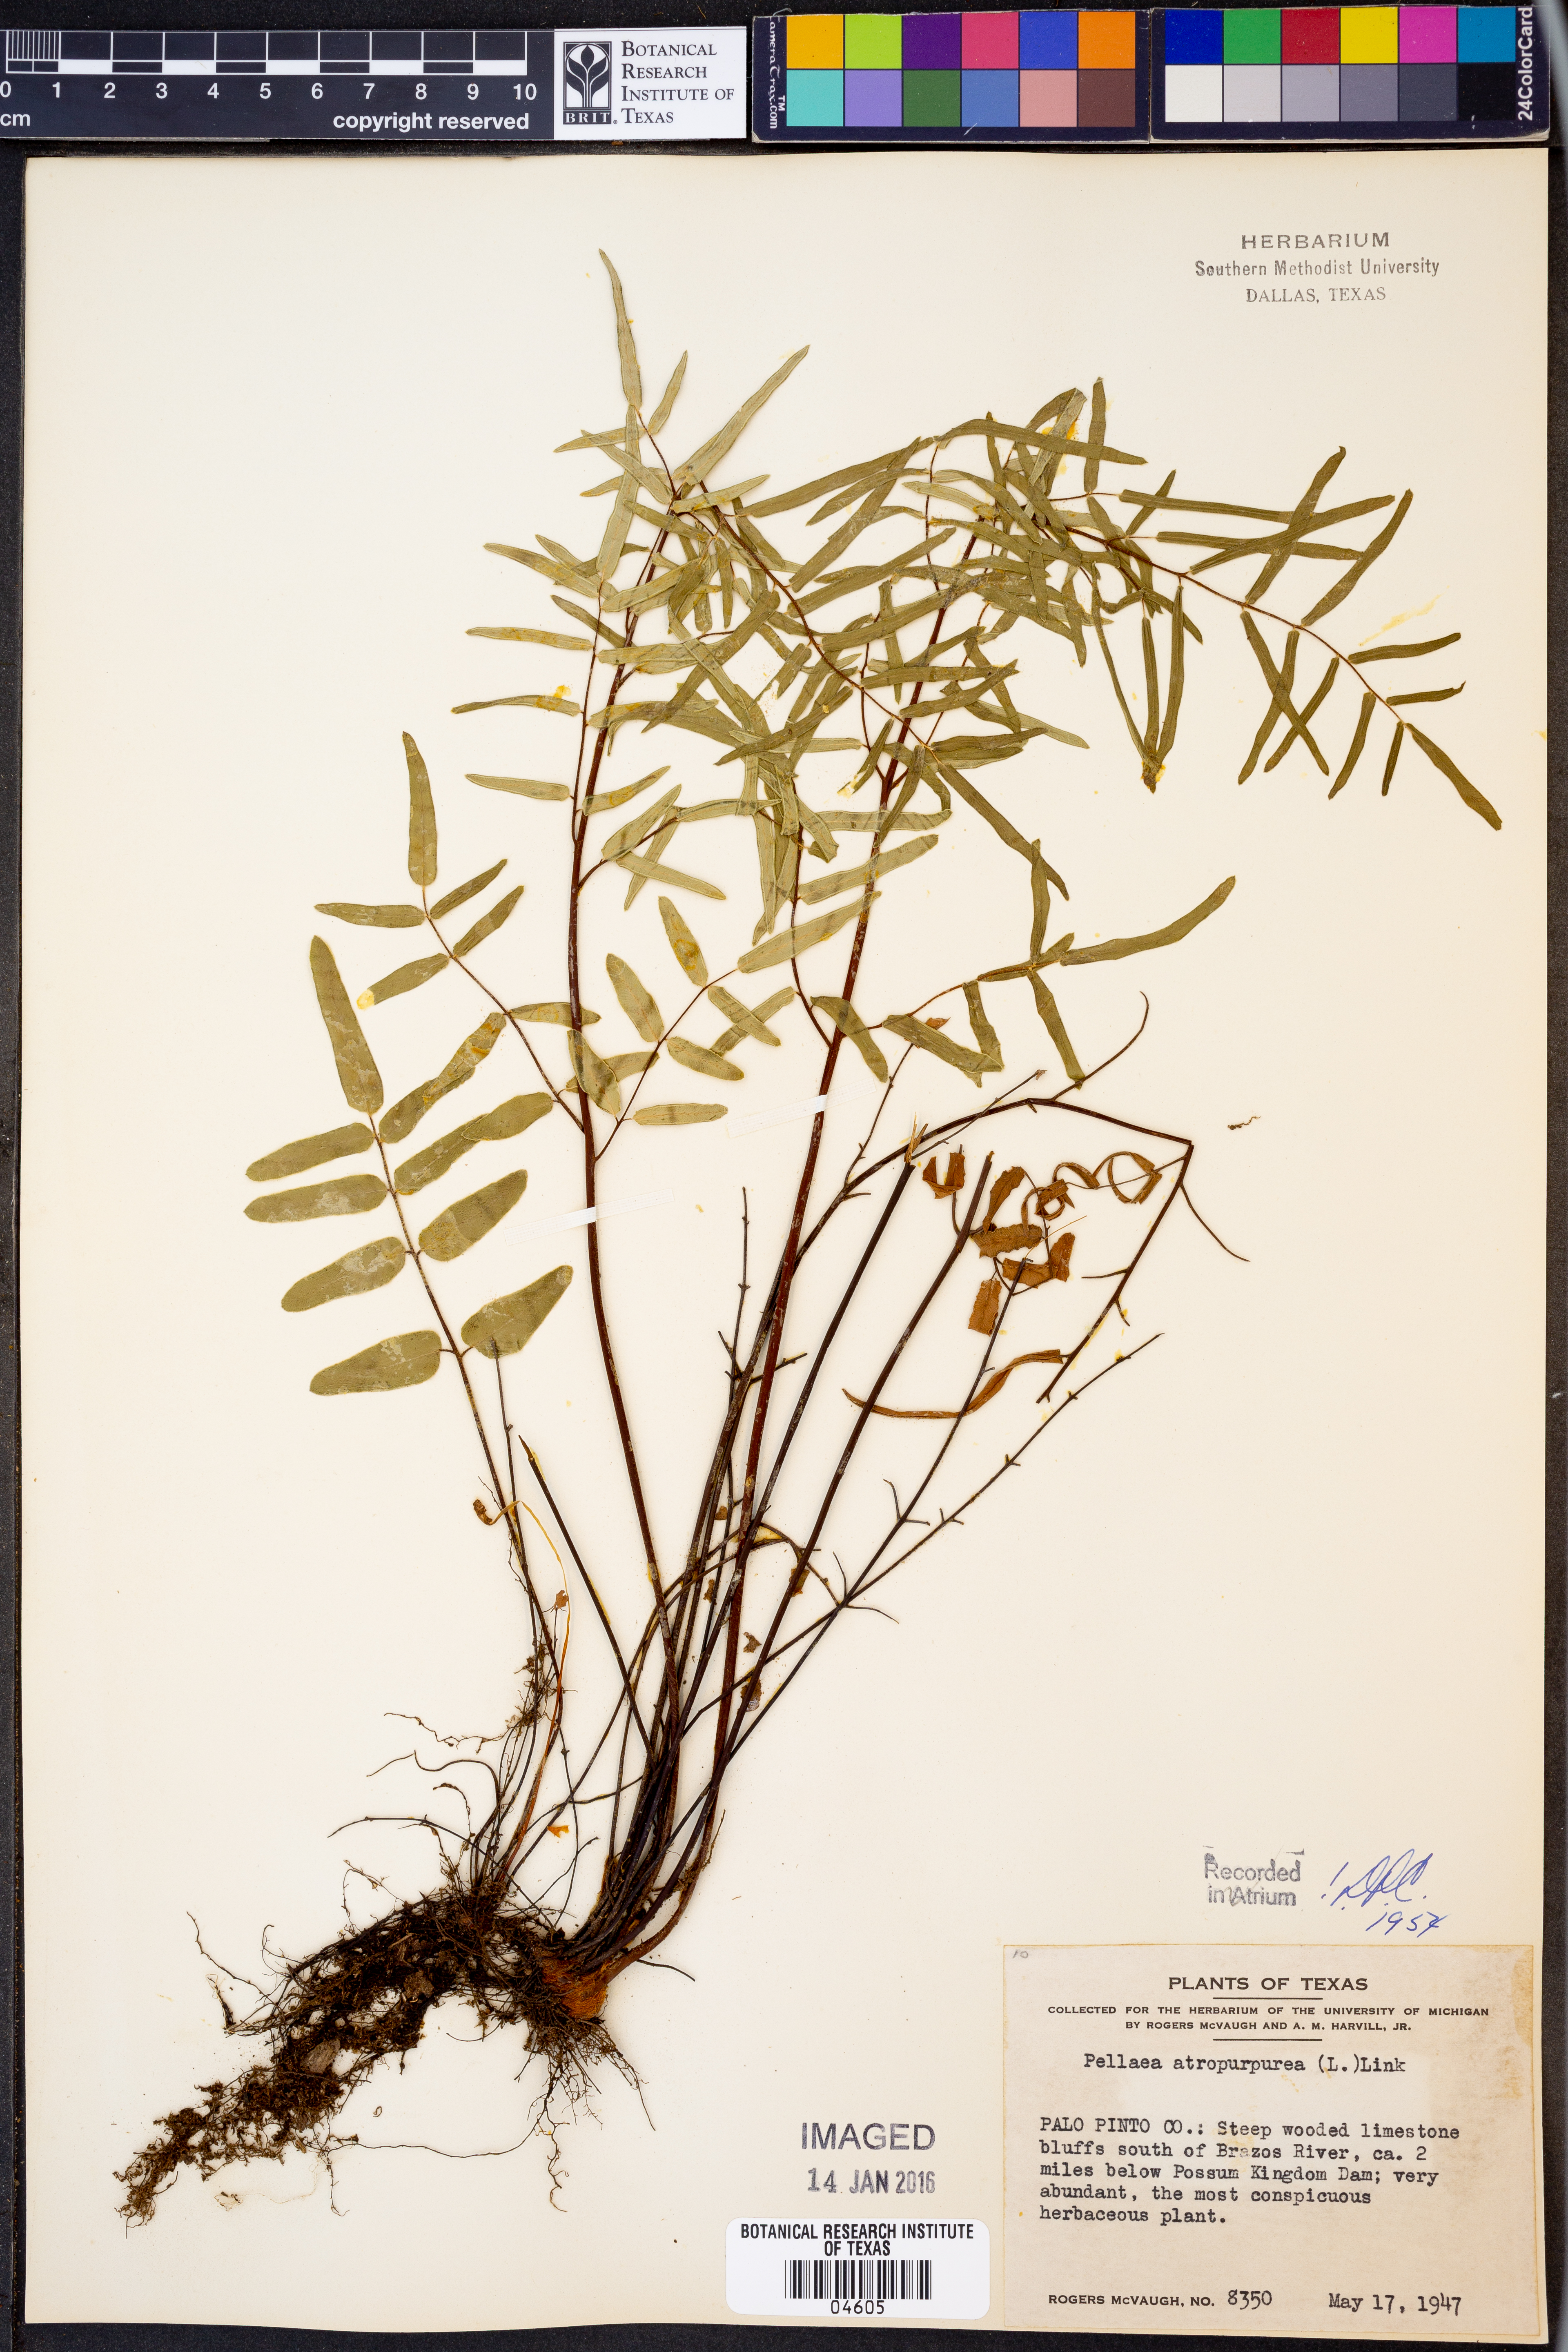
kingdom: Plantae
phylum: Tracheophyta
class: Polypodiopsida
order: Polypodiales
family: Pteridaceae
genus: Pellaea
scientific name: Pellaea atropurpurea
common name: Hairy cliffbrake
